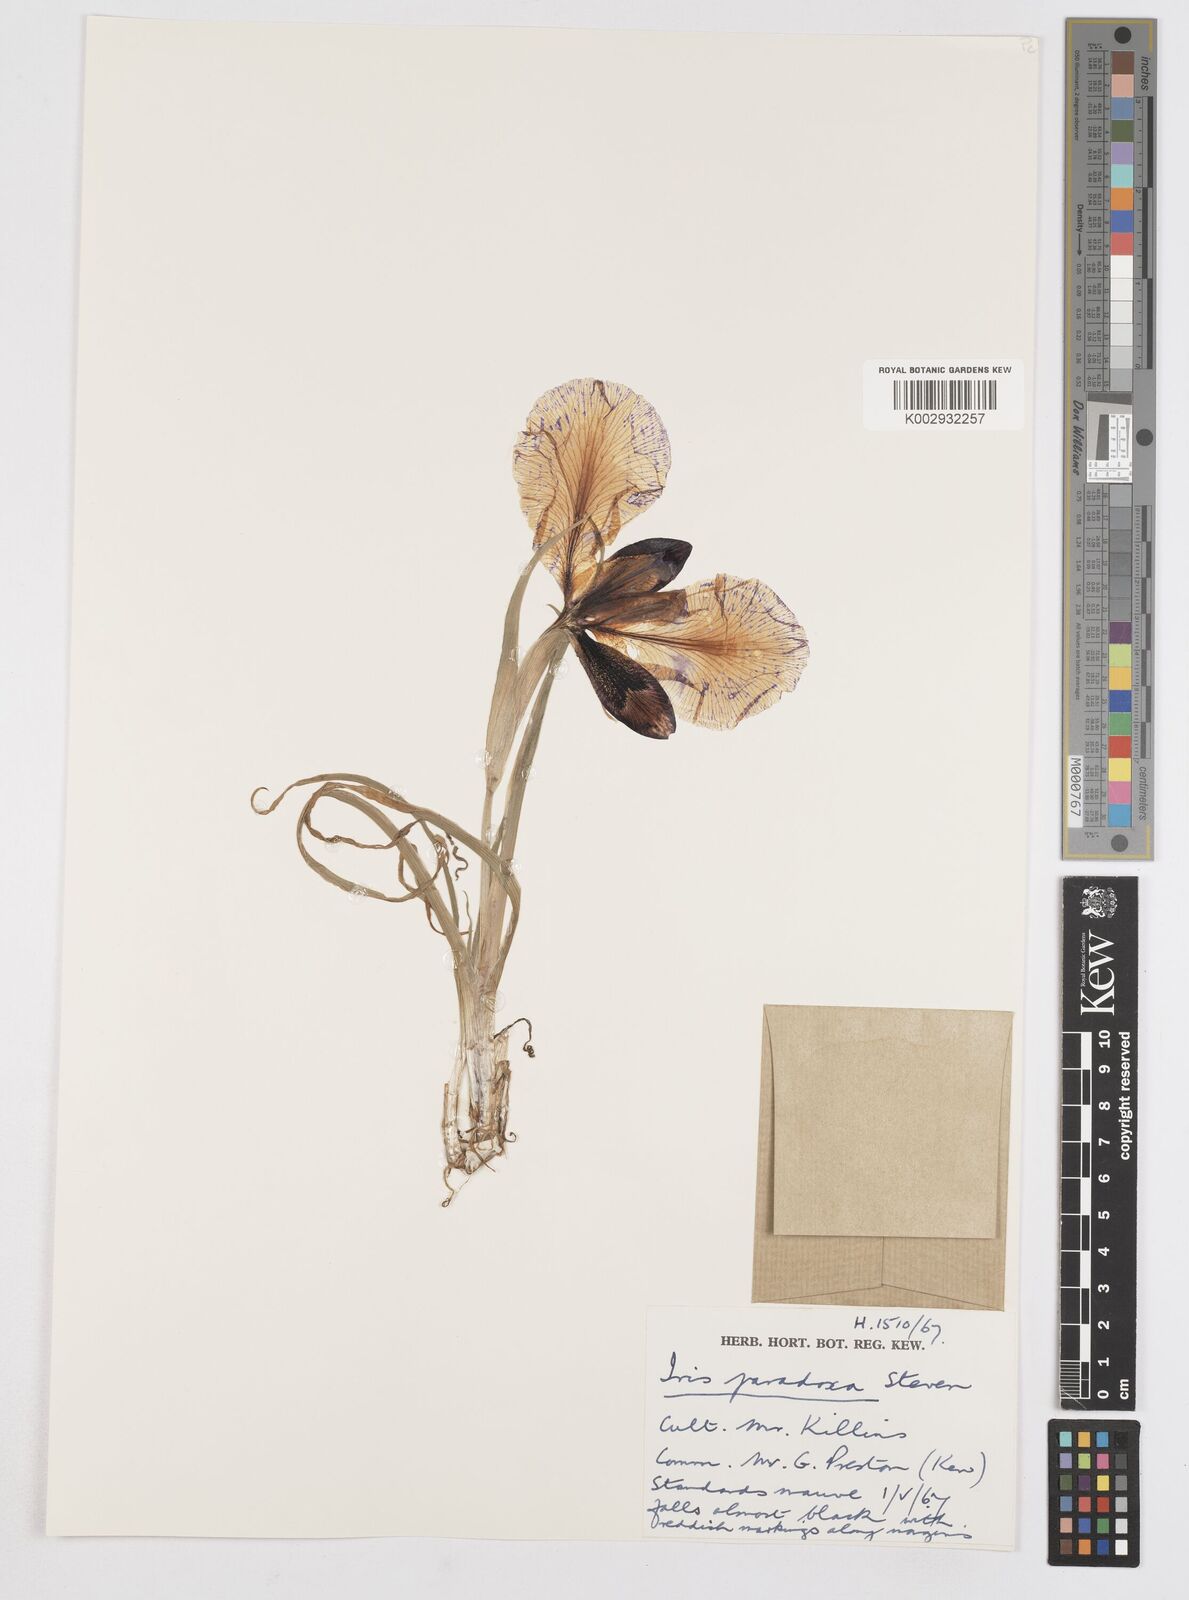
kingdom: Plantae
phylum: Tracheophyta
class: Liliopsida
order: Asparagales
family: Iridaceae
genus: Iris
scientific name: Iris paradoxa
